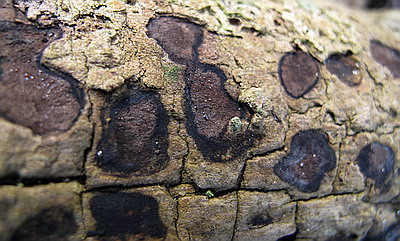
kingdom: Fungi
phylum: Ascomycota
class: Sordariomycetes
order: Xylariales
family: Hypoxylaceae
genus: Hypoxylon
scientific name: Hypoxylon petriniae
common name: nedsænket kulbær
